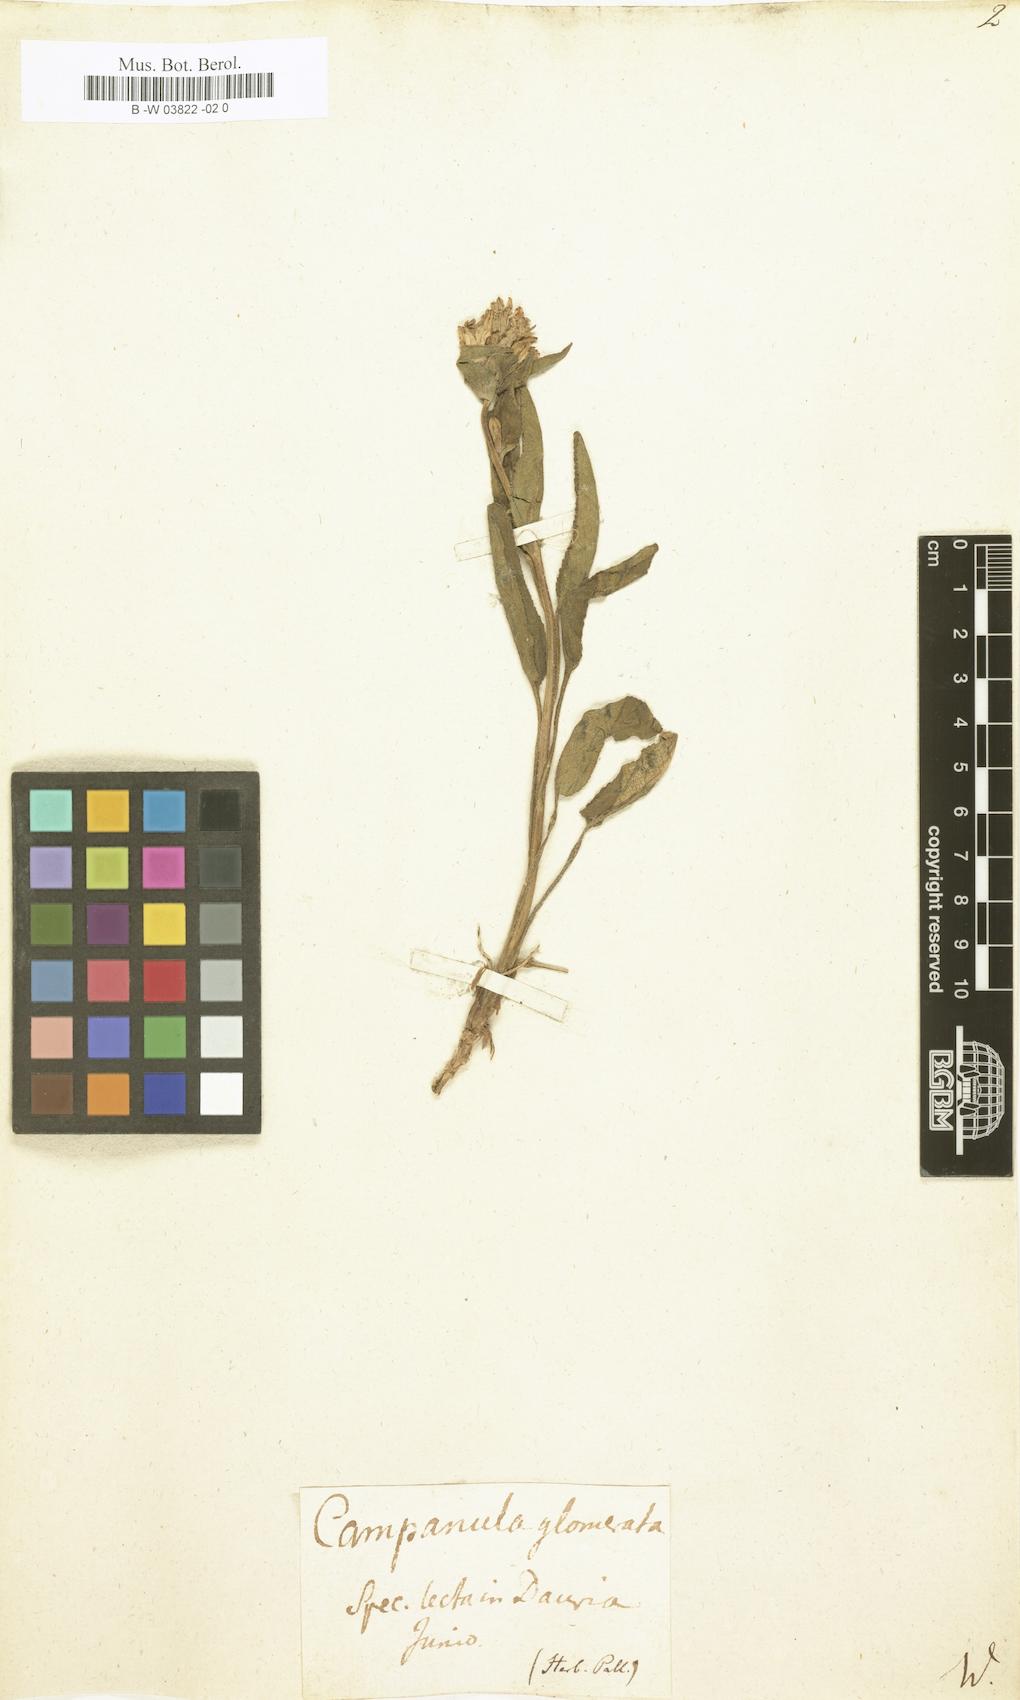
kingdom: Plantae
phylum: Tracheophyta
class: Magnoliopsida
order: Asterales
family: Campanulaceae
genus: Campanula
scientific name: Campanula glomerata
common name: Clustered bellflower
